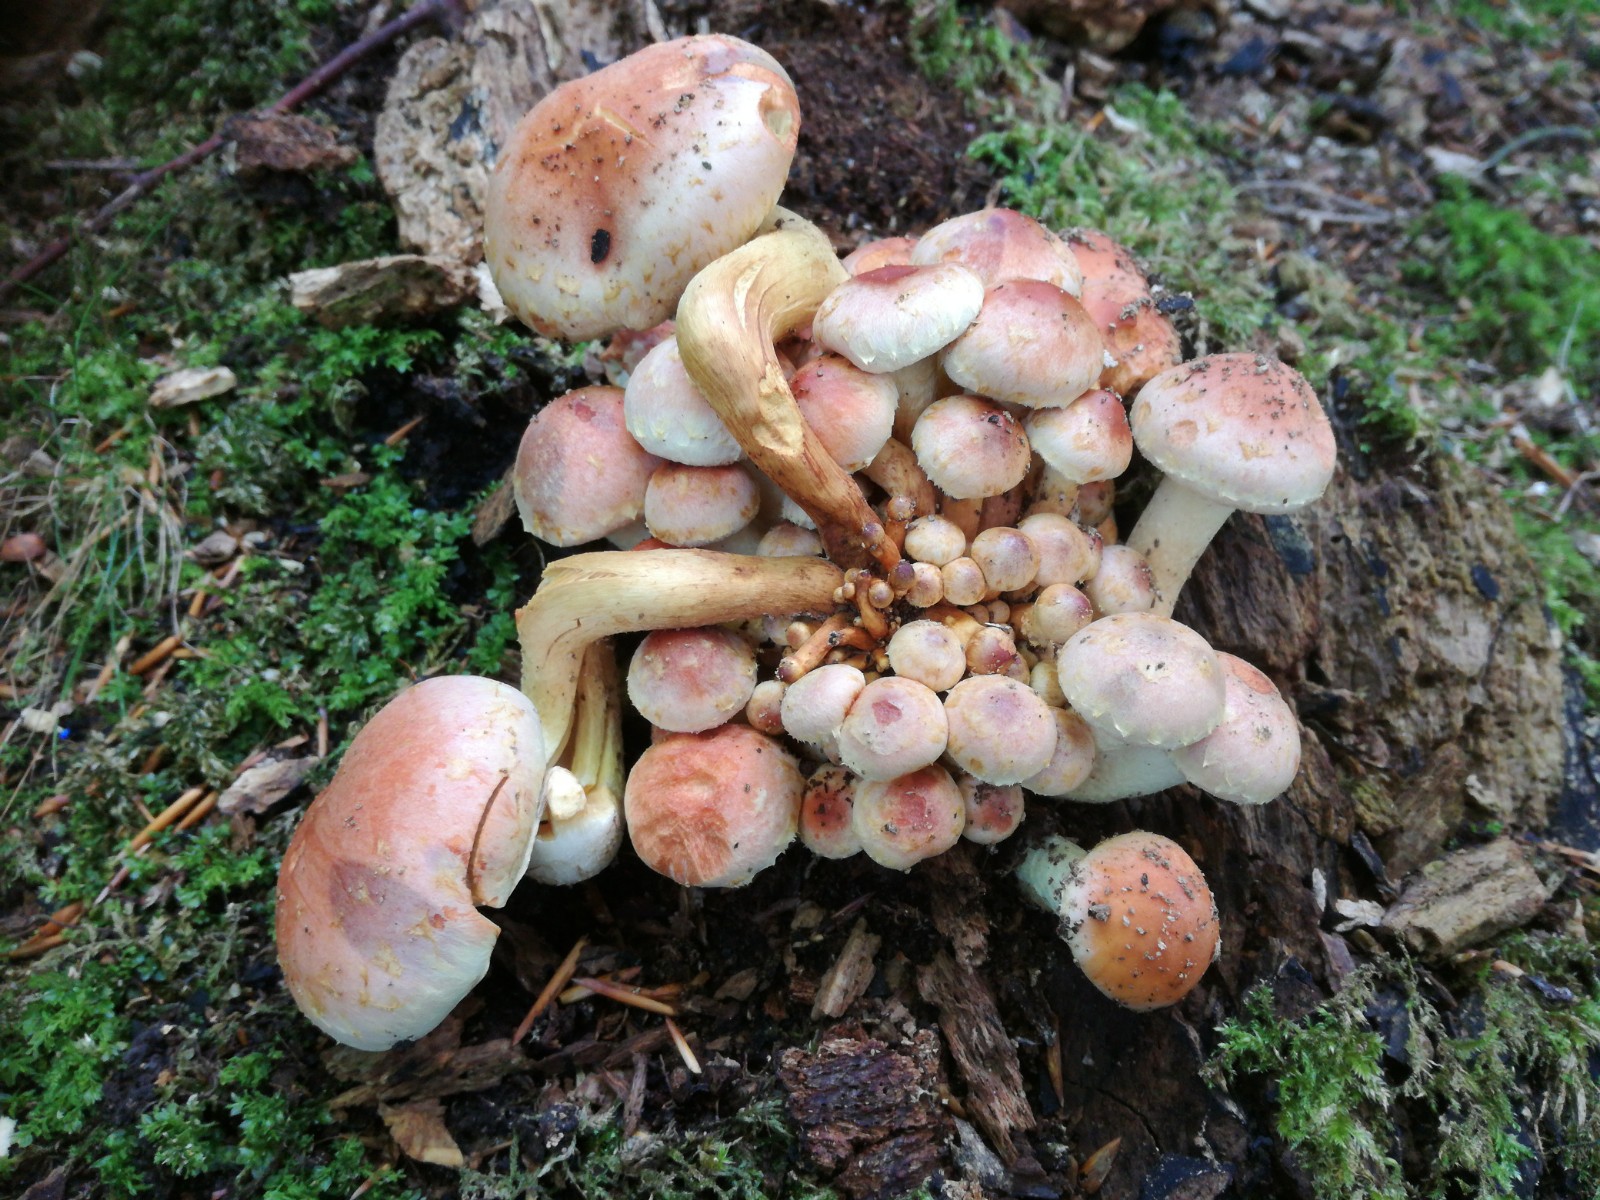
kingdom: Fungi
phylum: Basidiomycota
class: Agaricomycetes
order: Agaricales
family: Strophariaceae
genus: Hypholoma
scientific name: Hypholoma lateritium
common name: teglrød svovlhat
